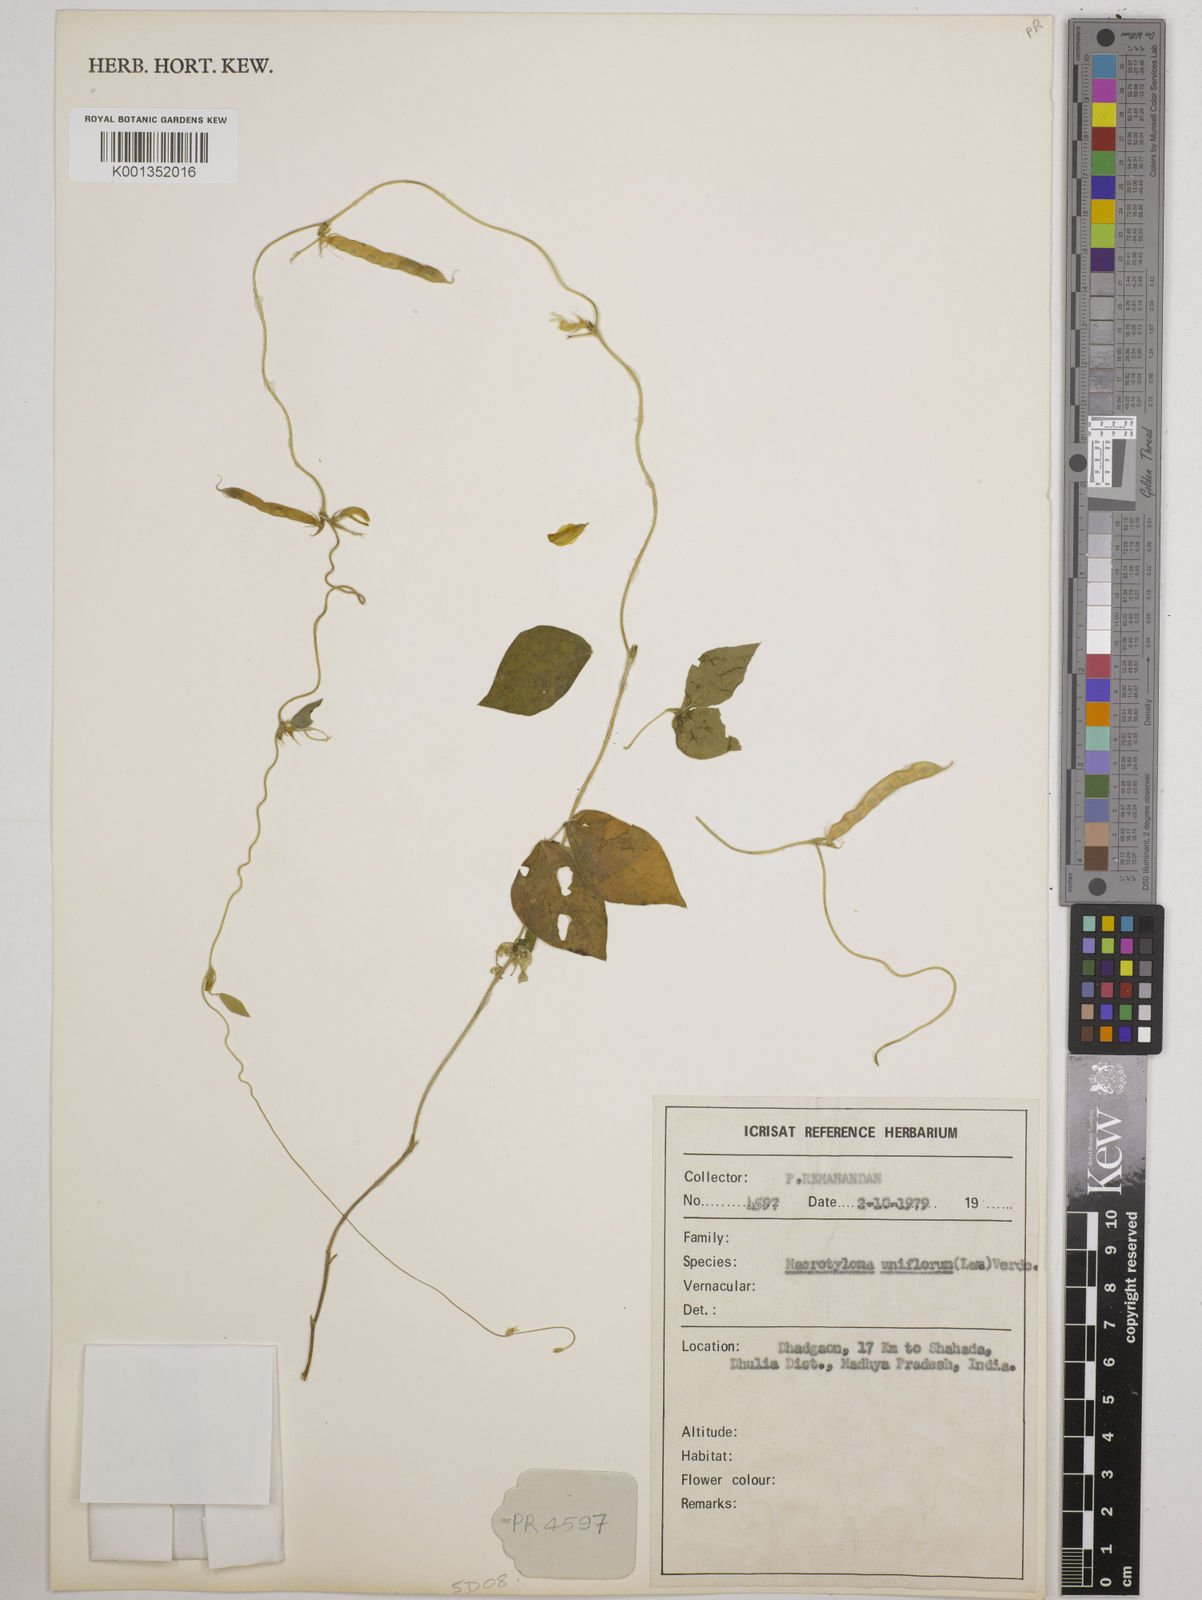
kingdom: Plantae
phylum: Tracheophyta
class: Magnoliopsida
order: Fabales
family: Fabaceae
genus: Macrotyloma
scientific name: Macrotyloma uniflorum
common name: Horse gram
